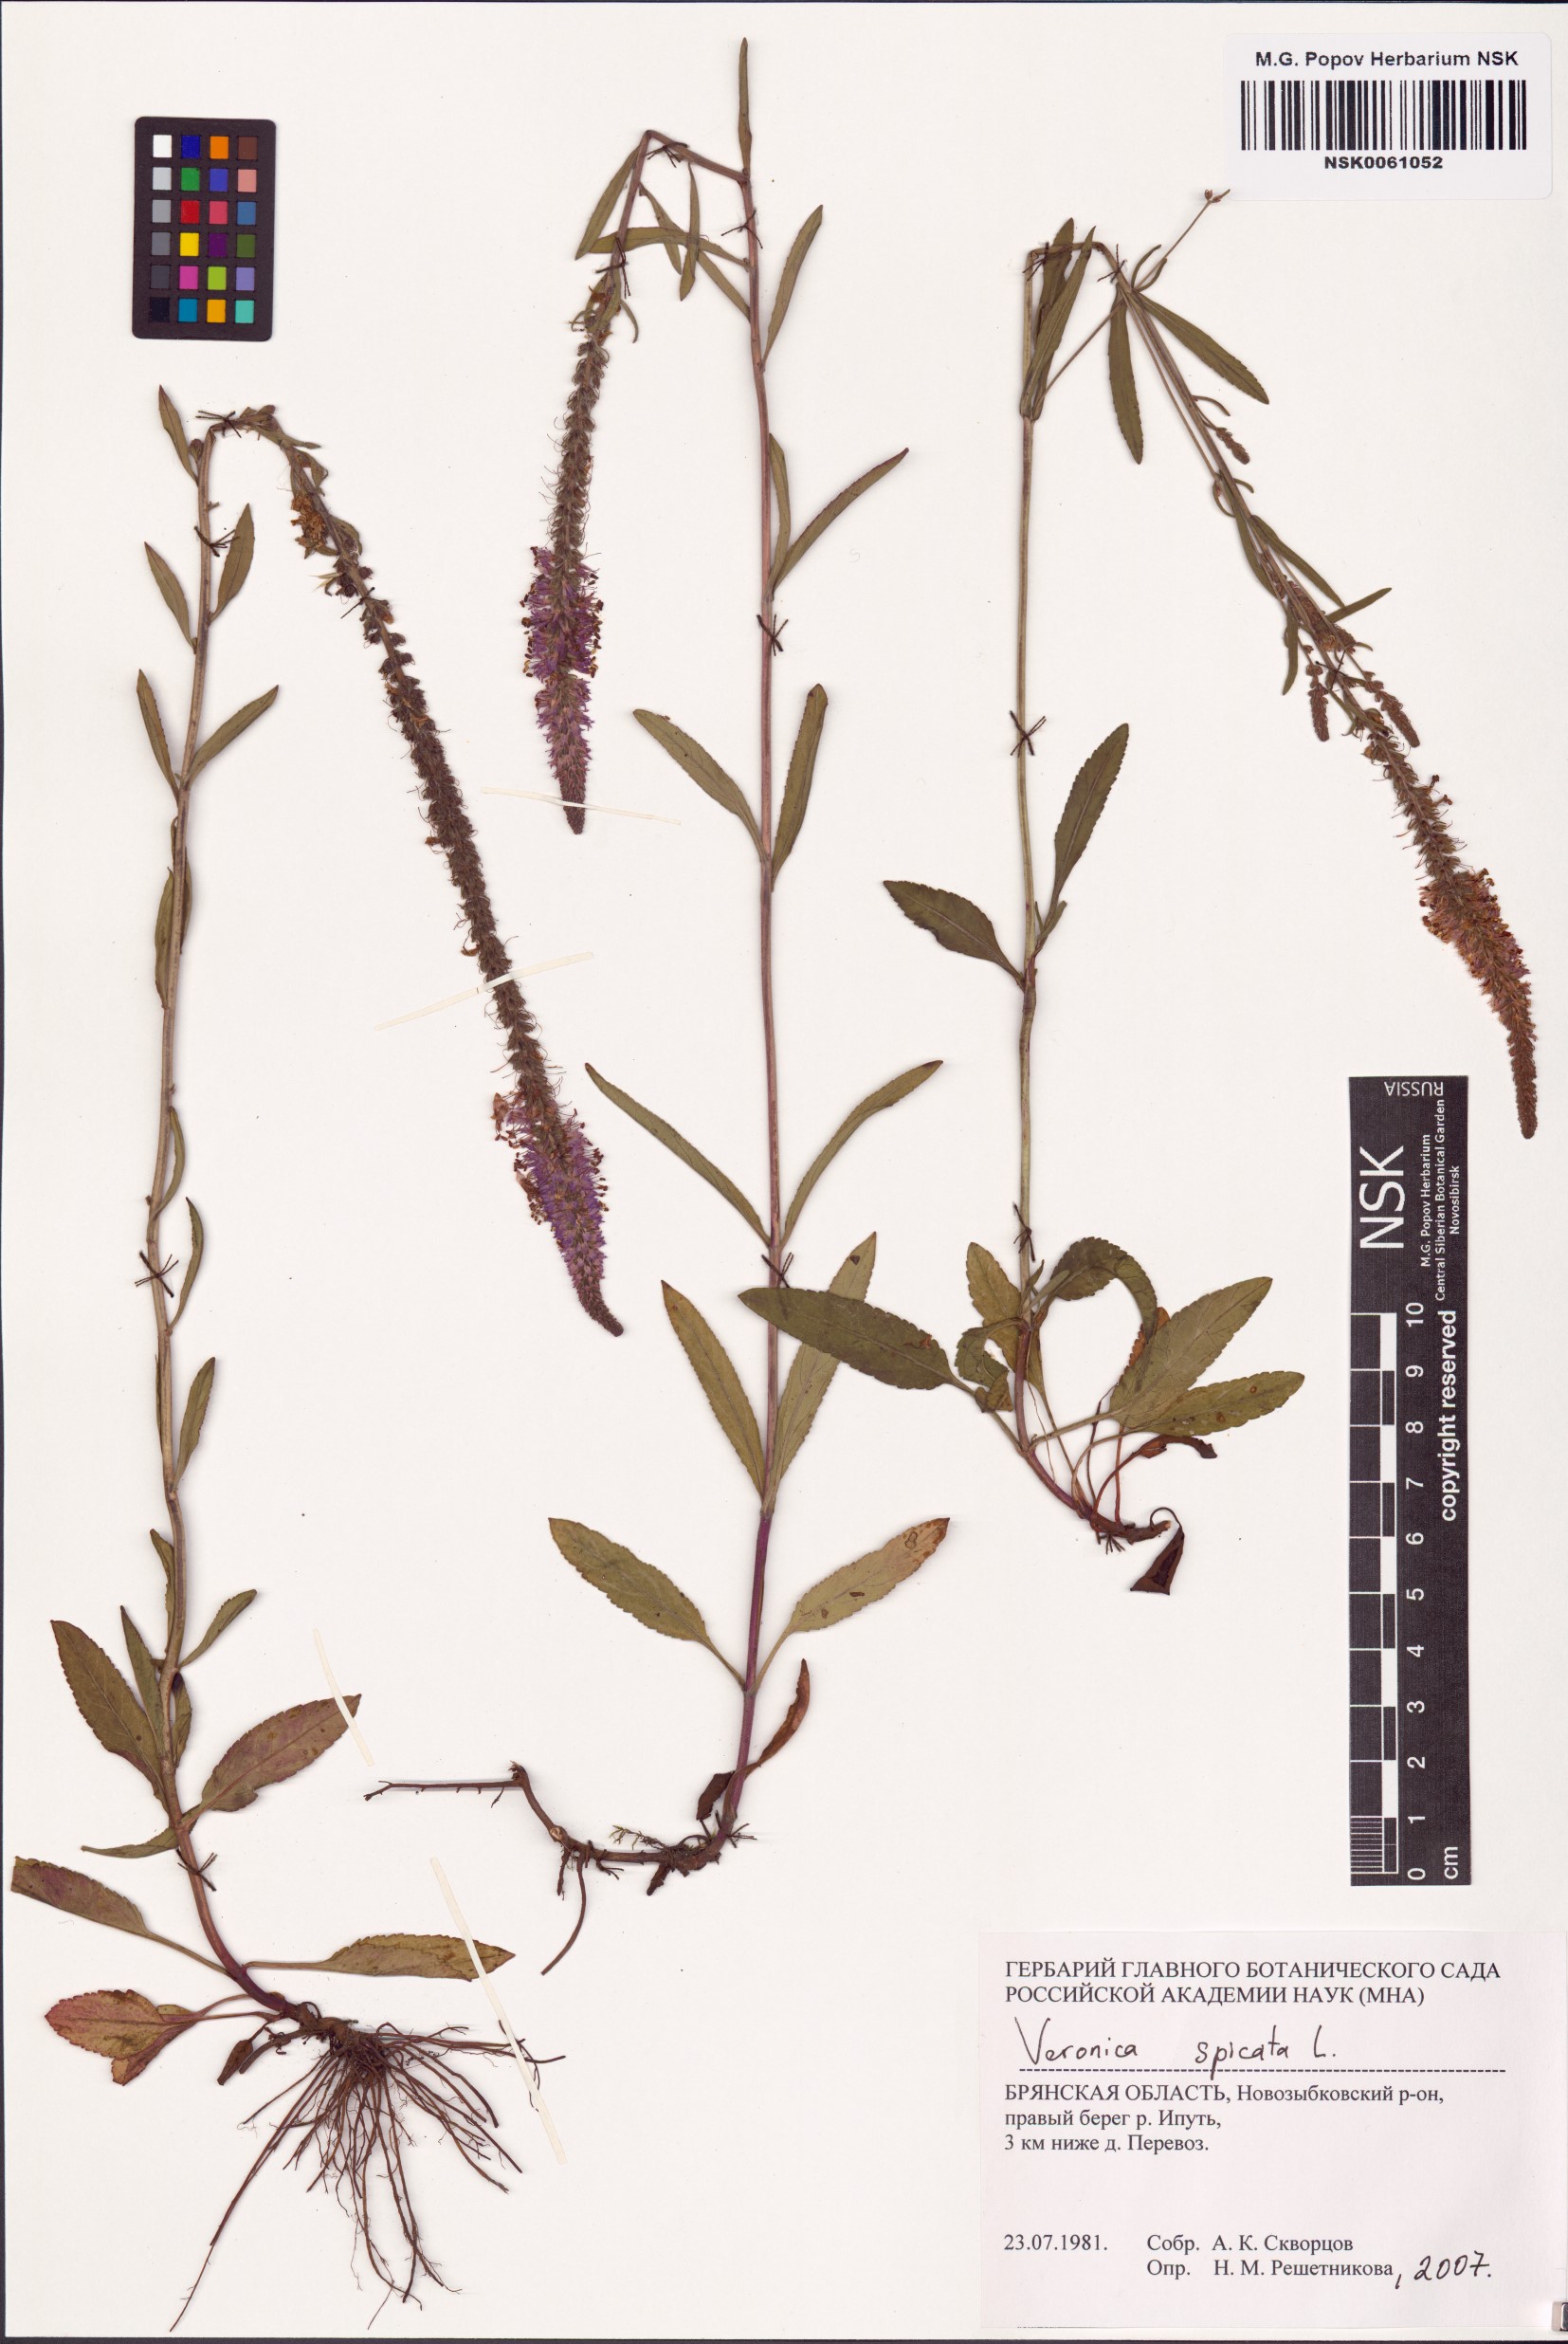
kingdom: Plantae
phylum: Tracheophyta
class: Magnoliopsida
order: Lamiales
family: Plantaginaceae
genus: Veronica
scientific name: Veronica spicata
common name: Spiked speedwell
